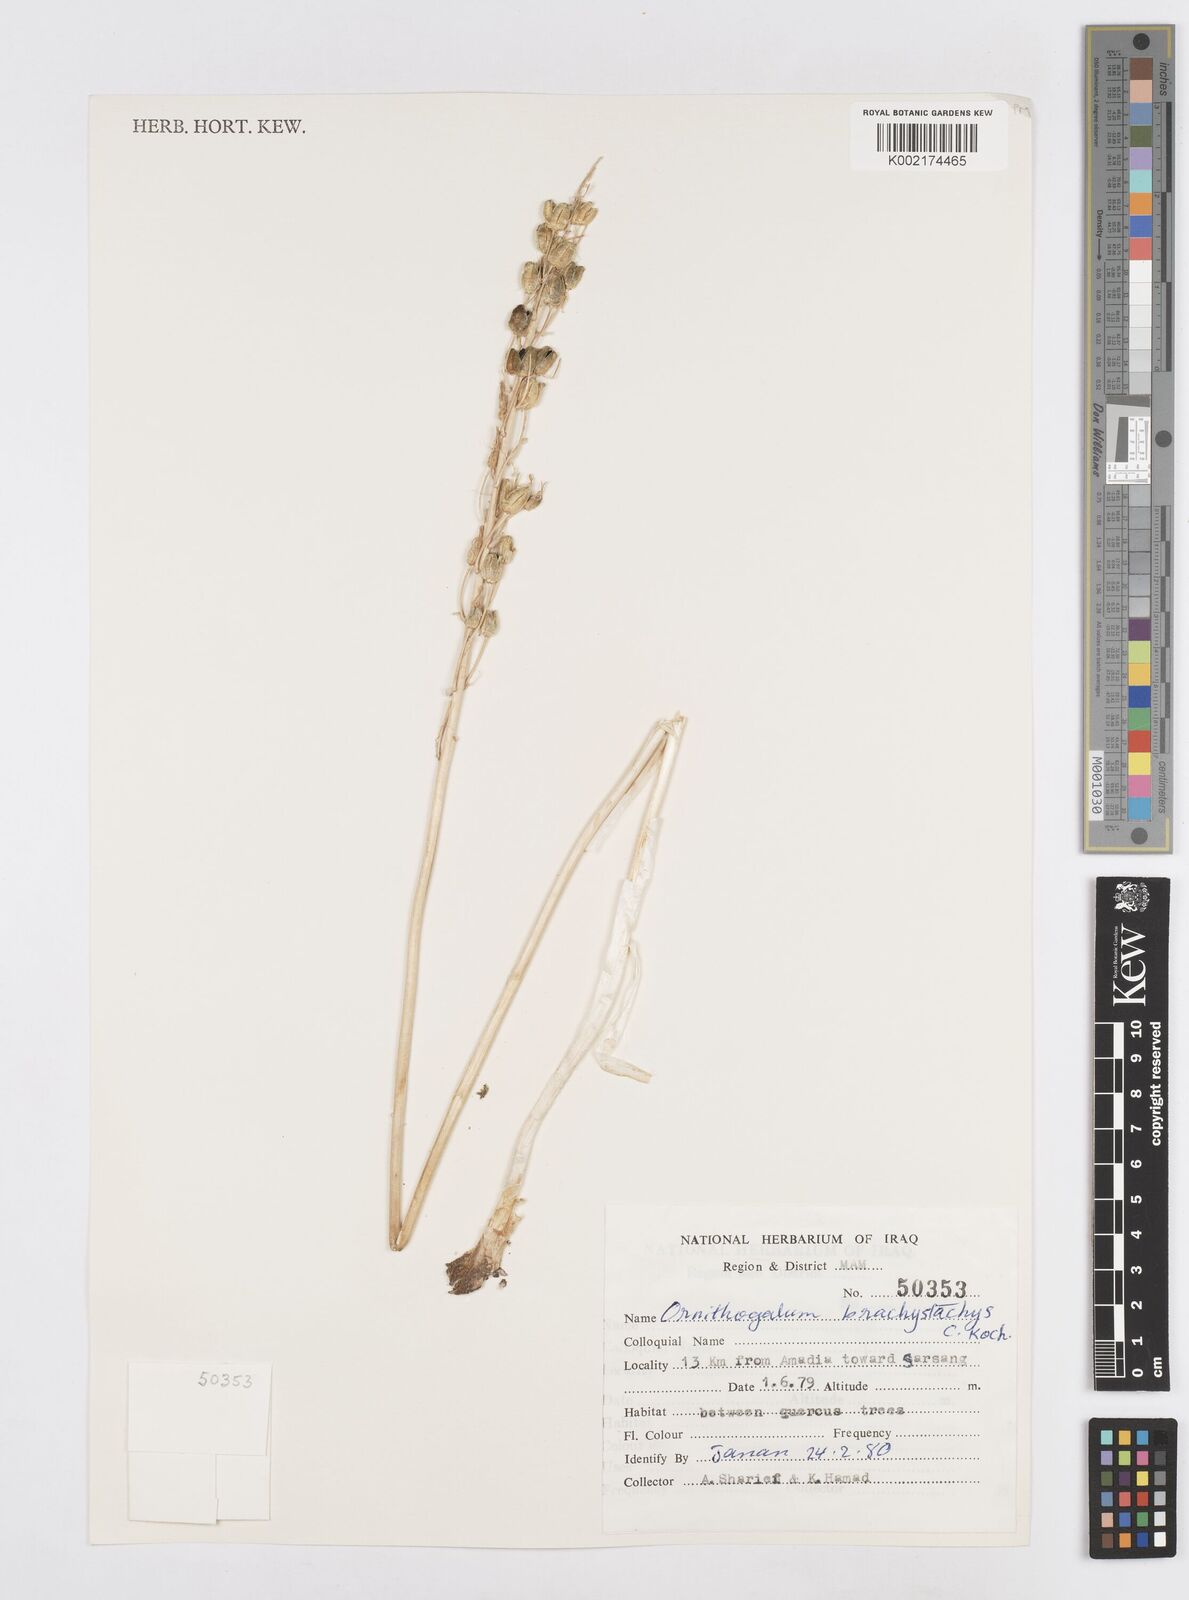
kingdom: Plantae
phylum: Tracheophyta
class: Liliopsida
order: Asparagales
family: Asparagaceae
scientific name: Asparagaceae
